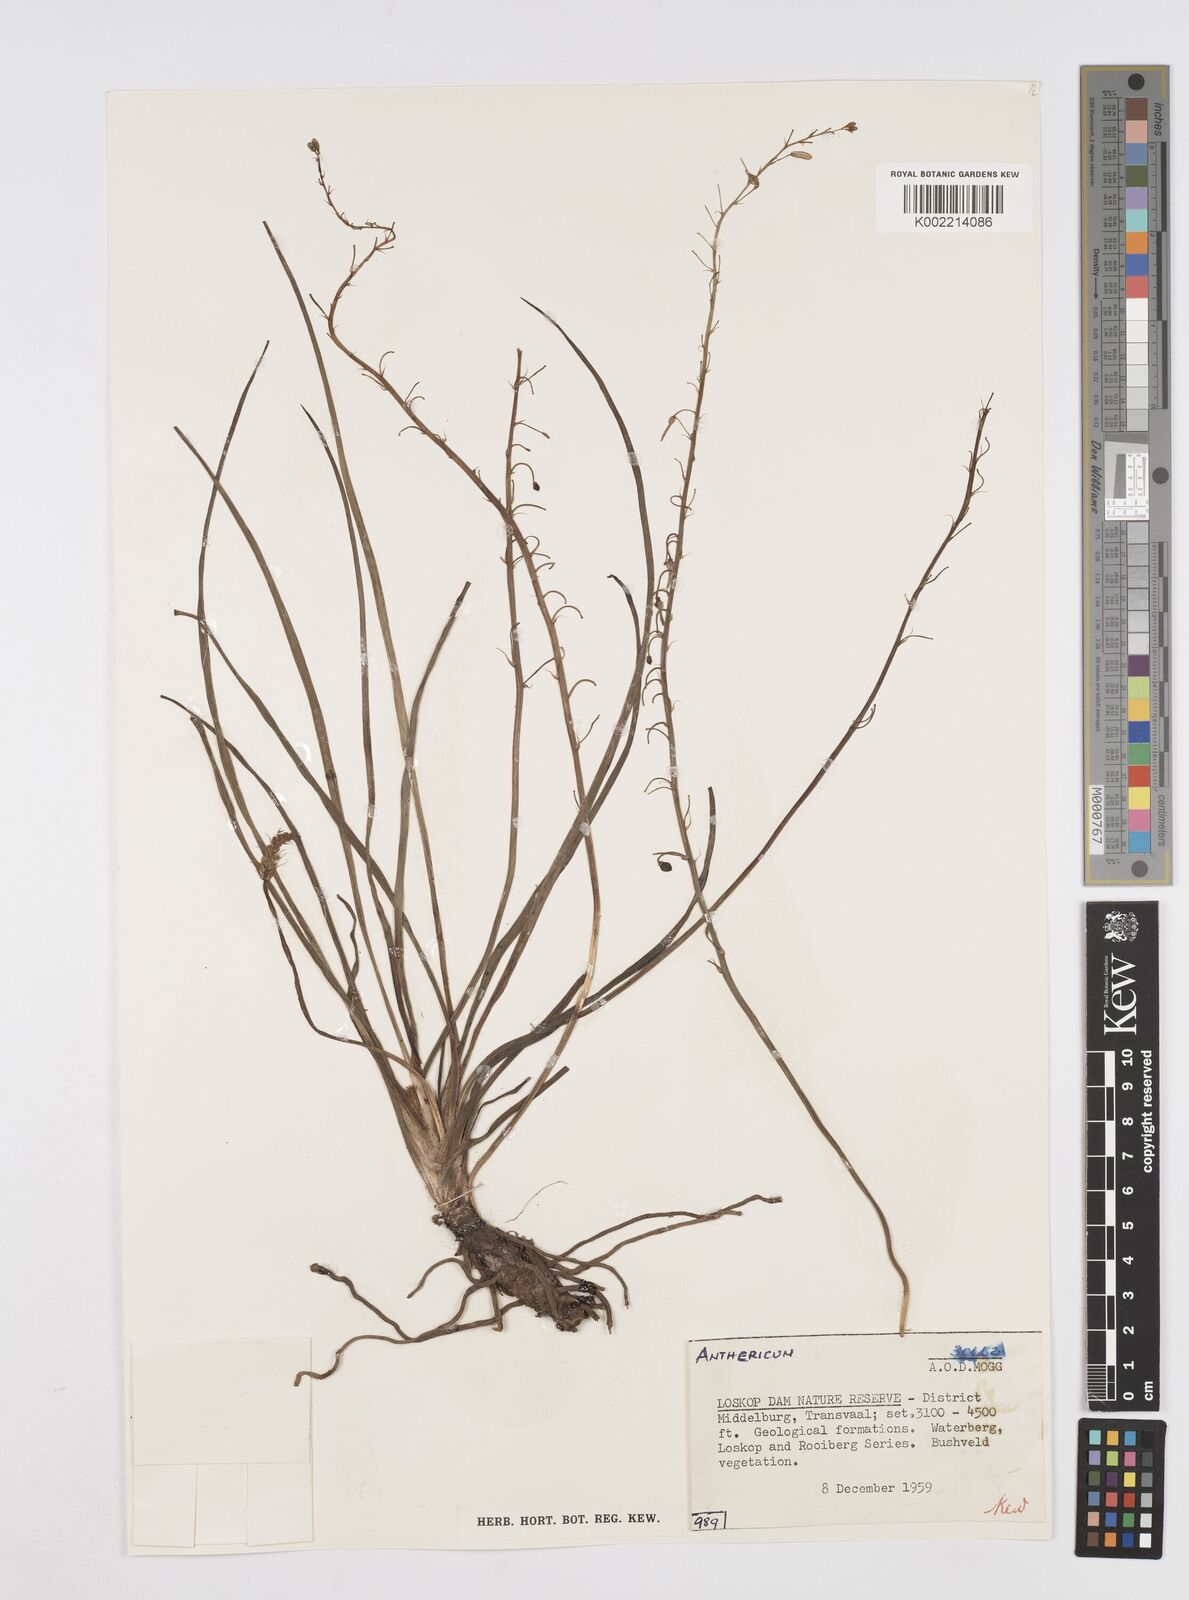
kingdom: Plantae
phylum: Tracheophyta
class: Liliopsida
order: Asparagales
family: Asphodelaceae
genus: Trachyandra
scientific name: Trachyandra
